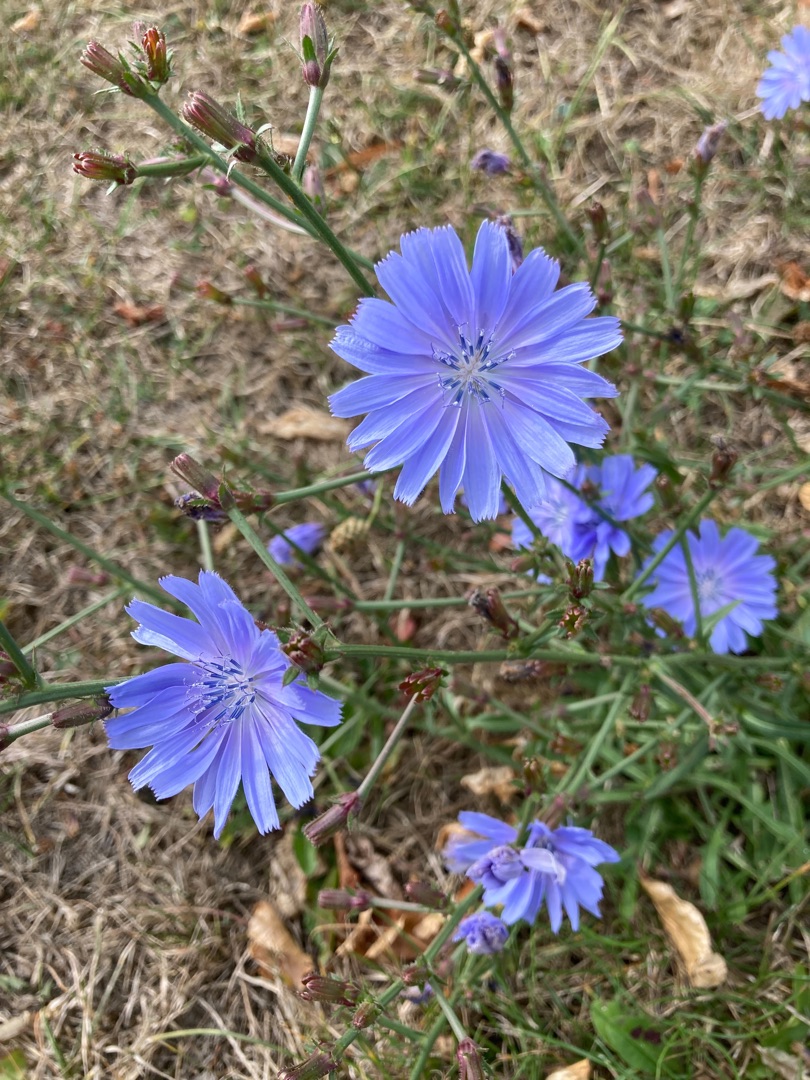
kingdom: Plantae
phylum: Tracheophyta
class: Magnoliopsida
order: Asterales
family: Asteraceae
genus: Cichorium
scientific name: Cichorium intybus
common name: Cikorie
